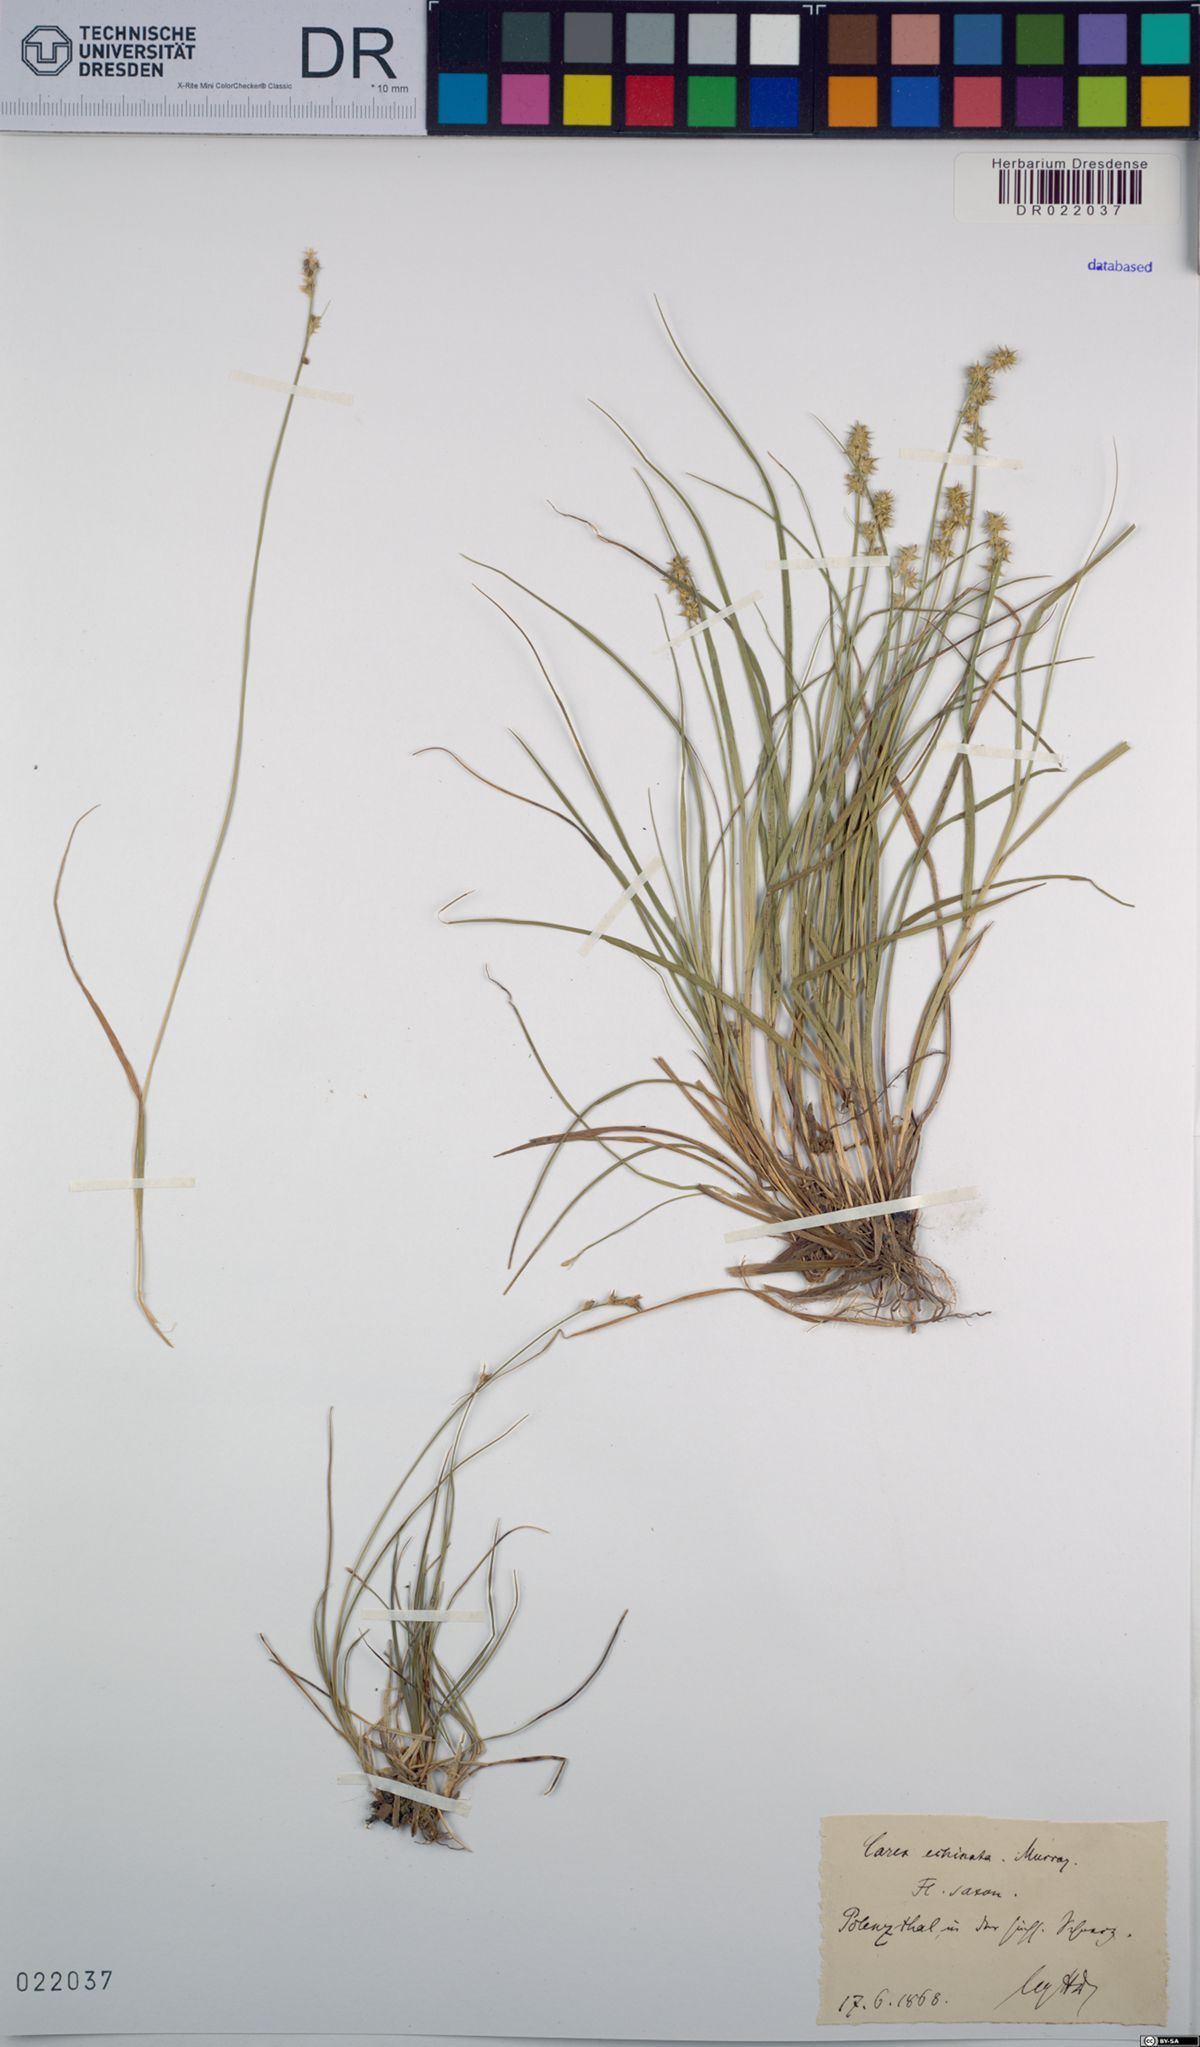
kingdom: Plantae
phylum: Tracheophyta
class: Liliopsida
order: Poales
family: Cyperaceae
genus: Carex
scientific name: Carex echinata
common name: Star sedge
